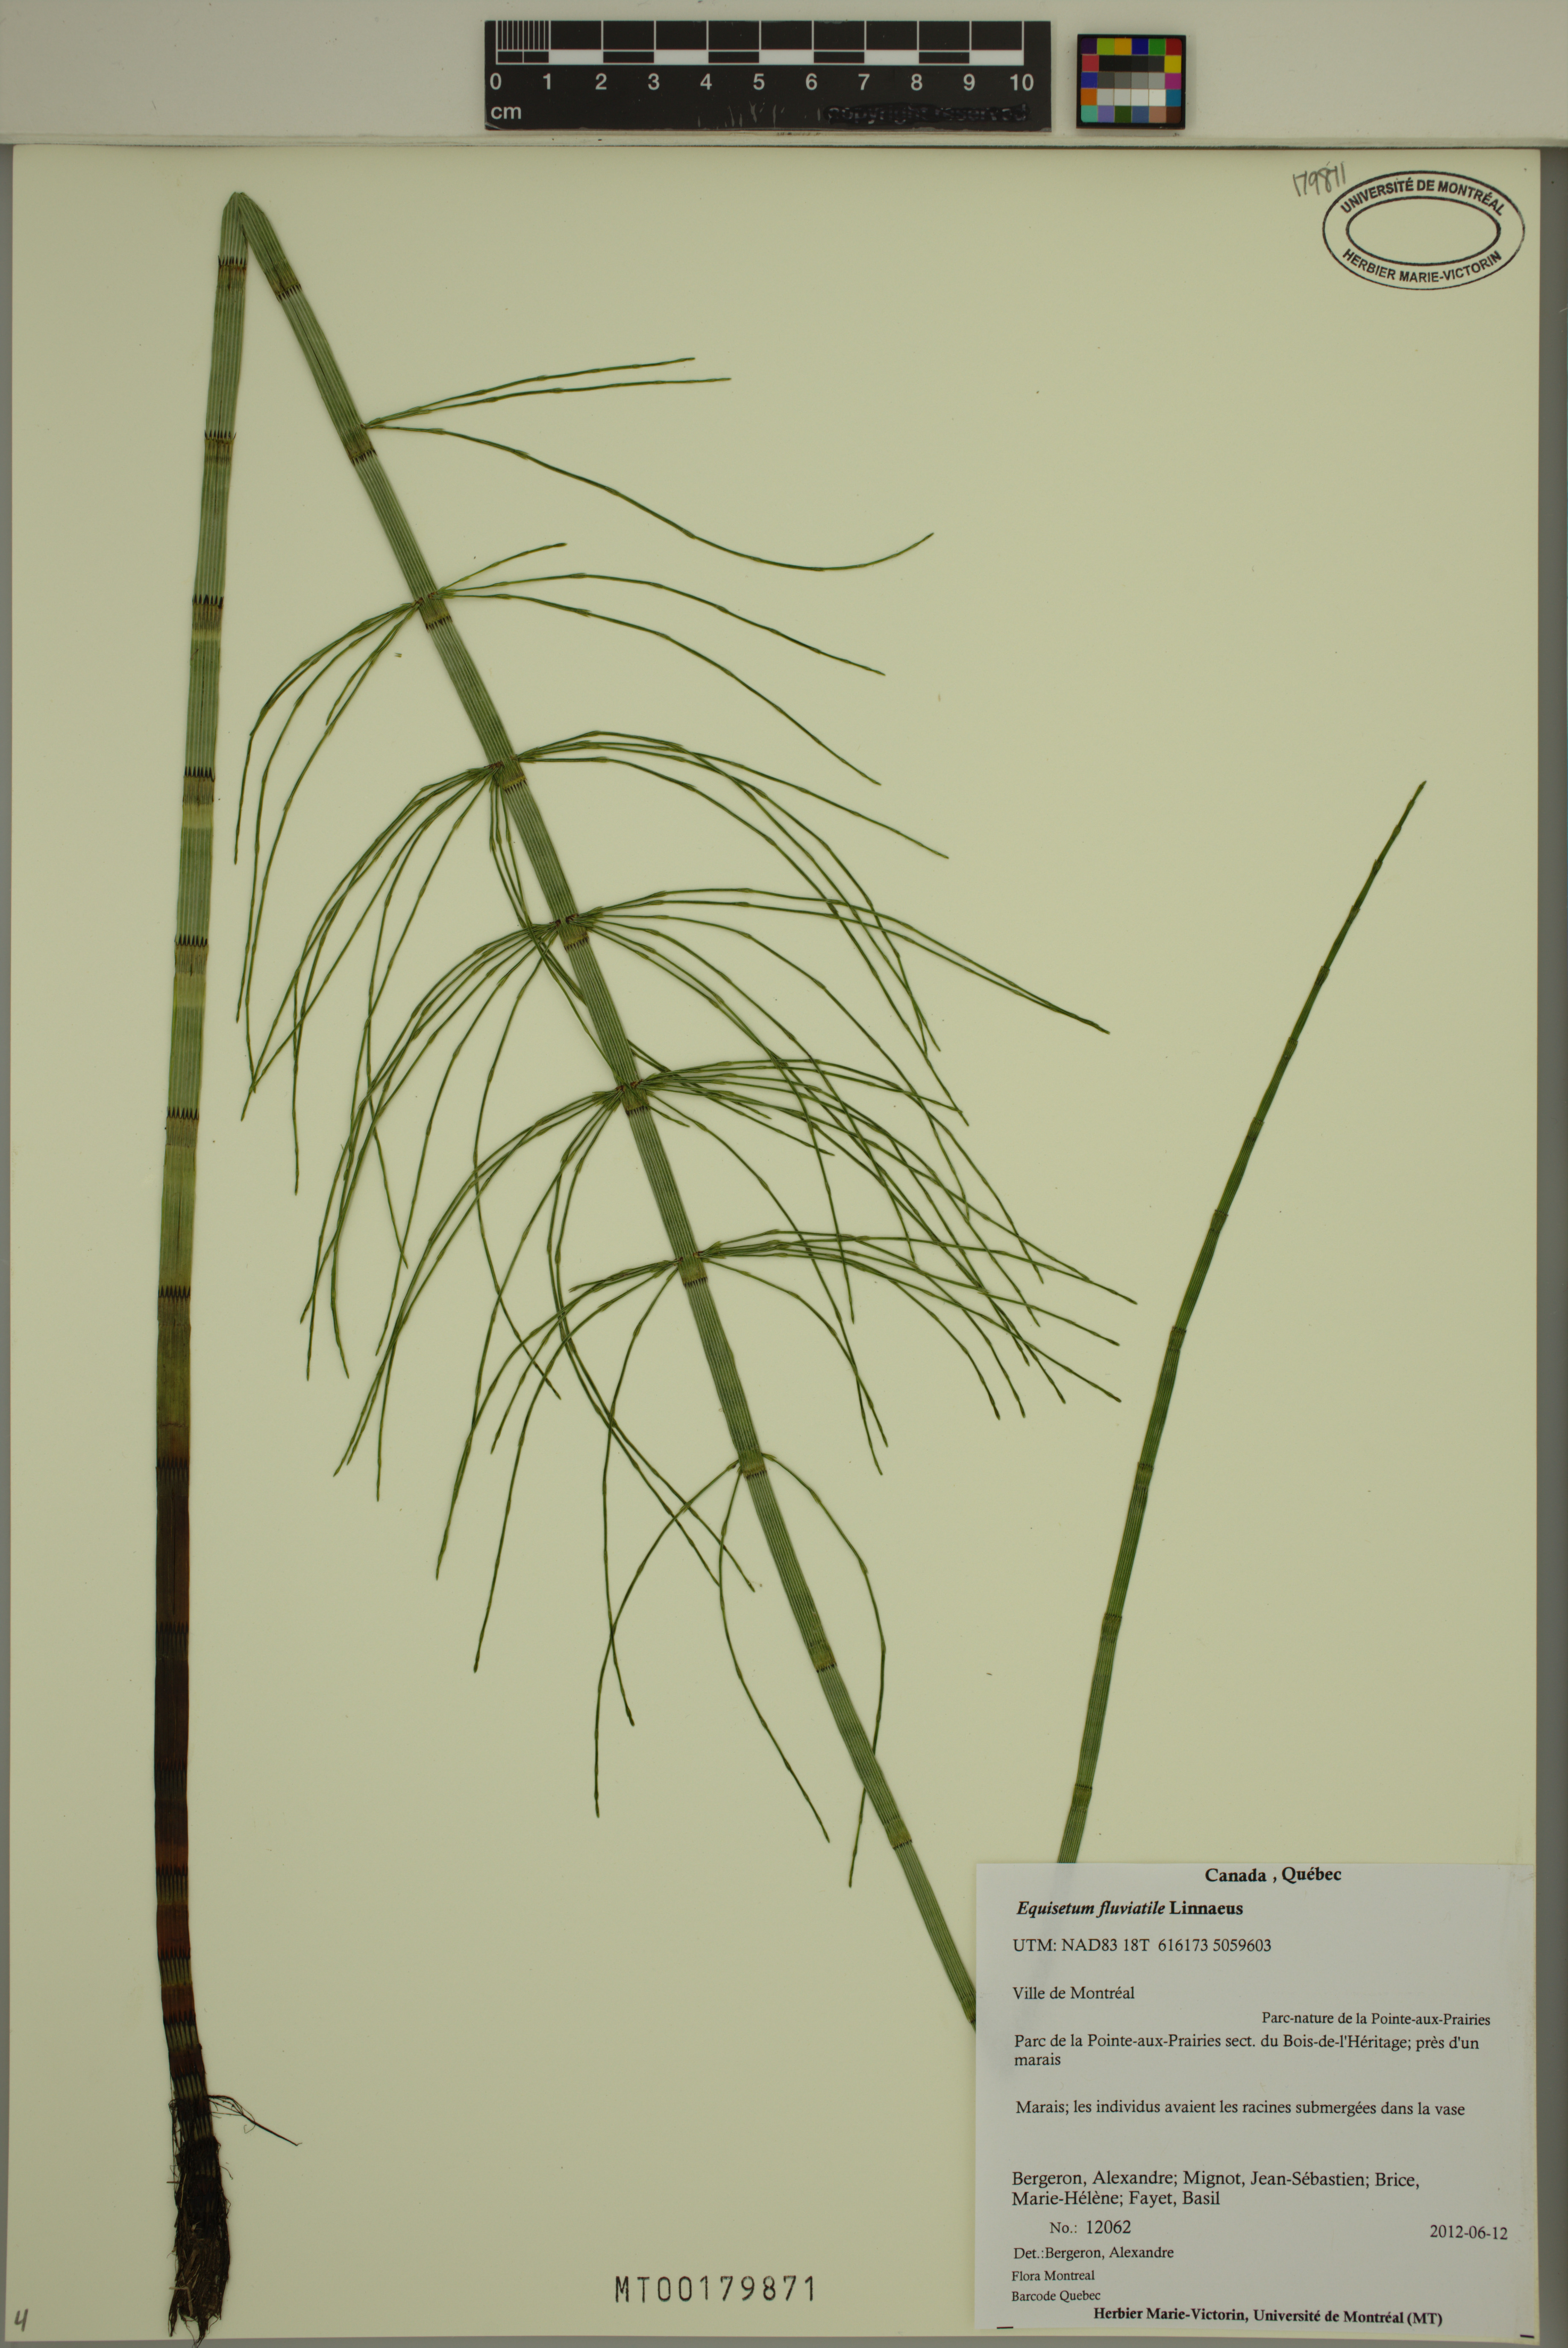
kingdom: Plantae
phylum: Tracheophyta
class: Polypodiopsida
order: Equisetales
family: Equisetaceae
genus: Equisetum
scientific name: Equisetum fluviatile
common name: Water horsetail
